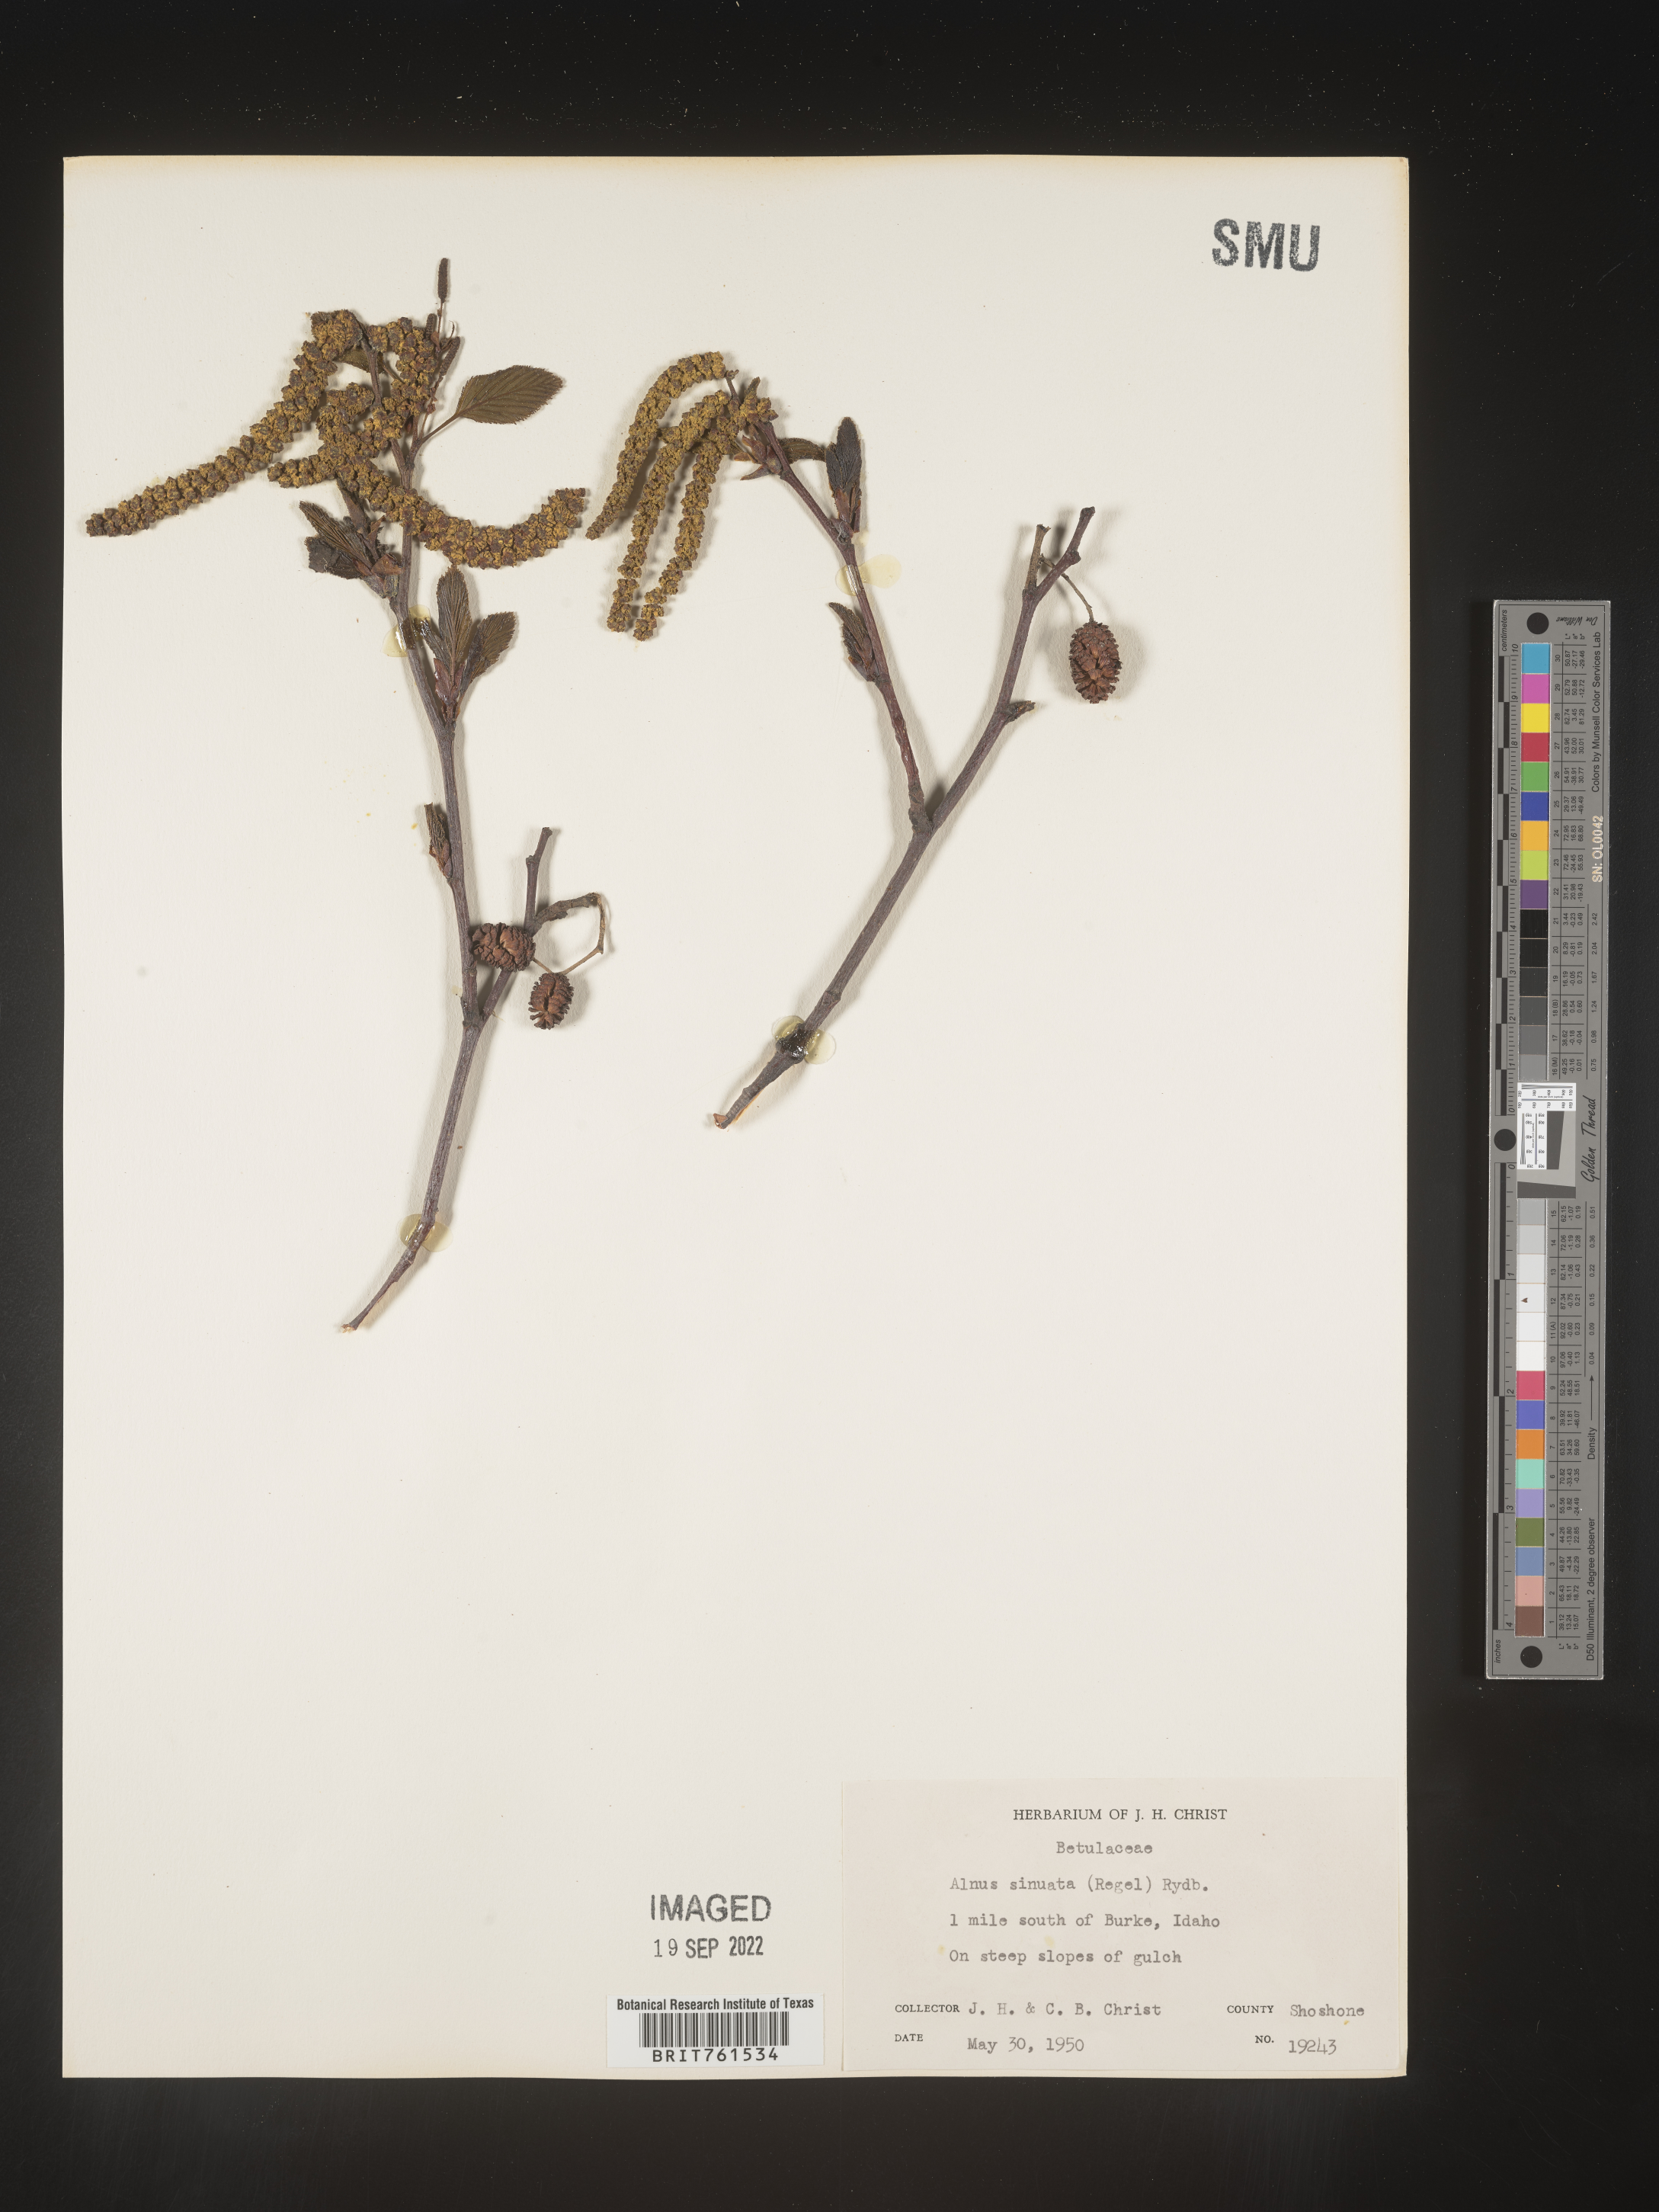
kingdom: Plantae
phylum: Tracheophyta
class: Magnoliopsida
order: Fagales
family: Betulaceae
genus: Alnus
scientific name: Alnus alnobetula
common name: Green alder
